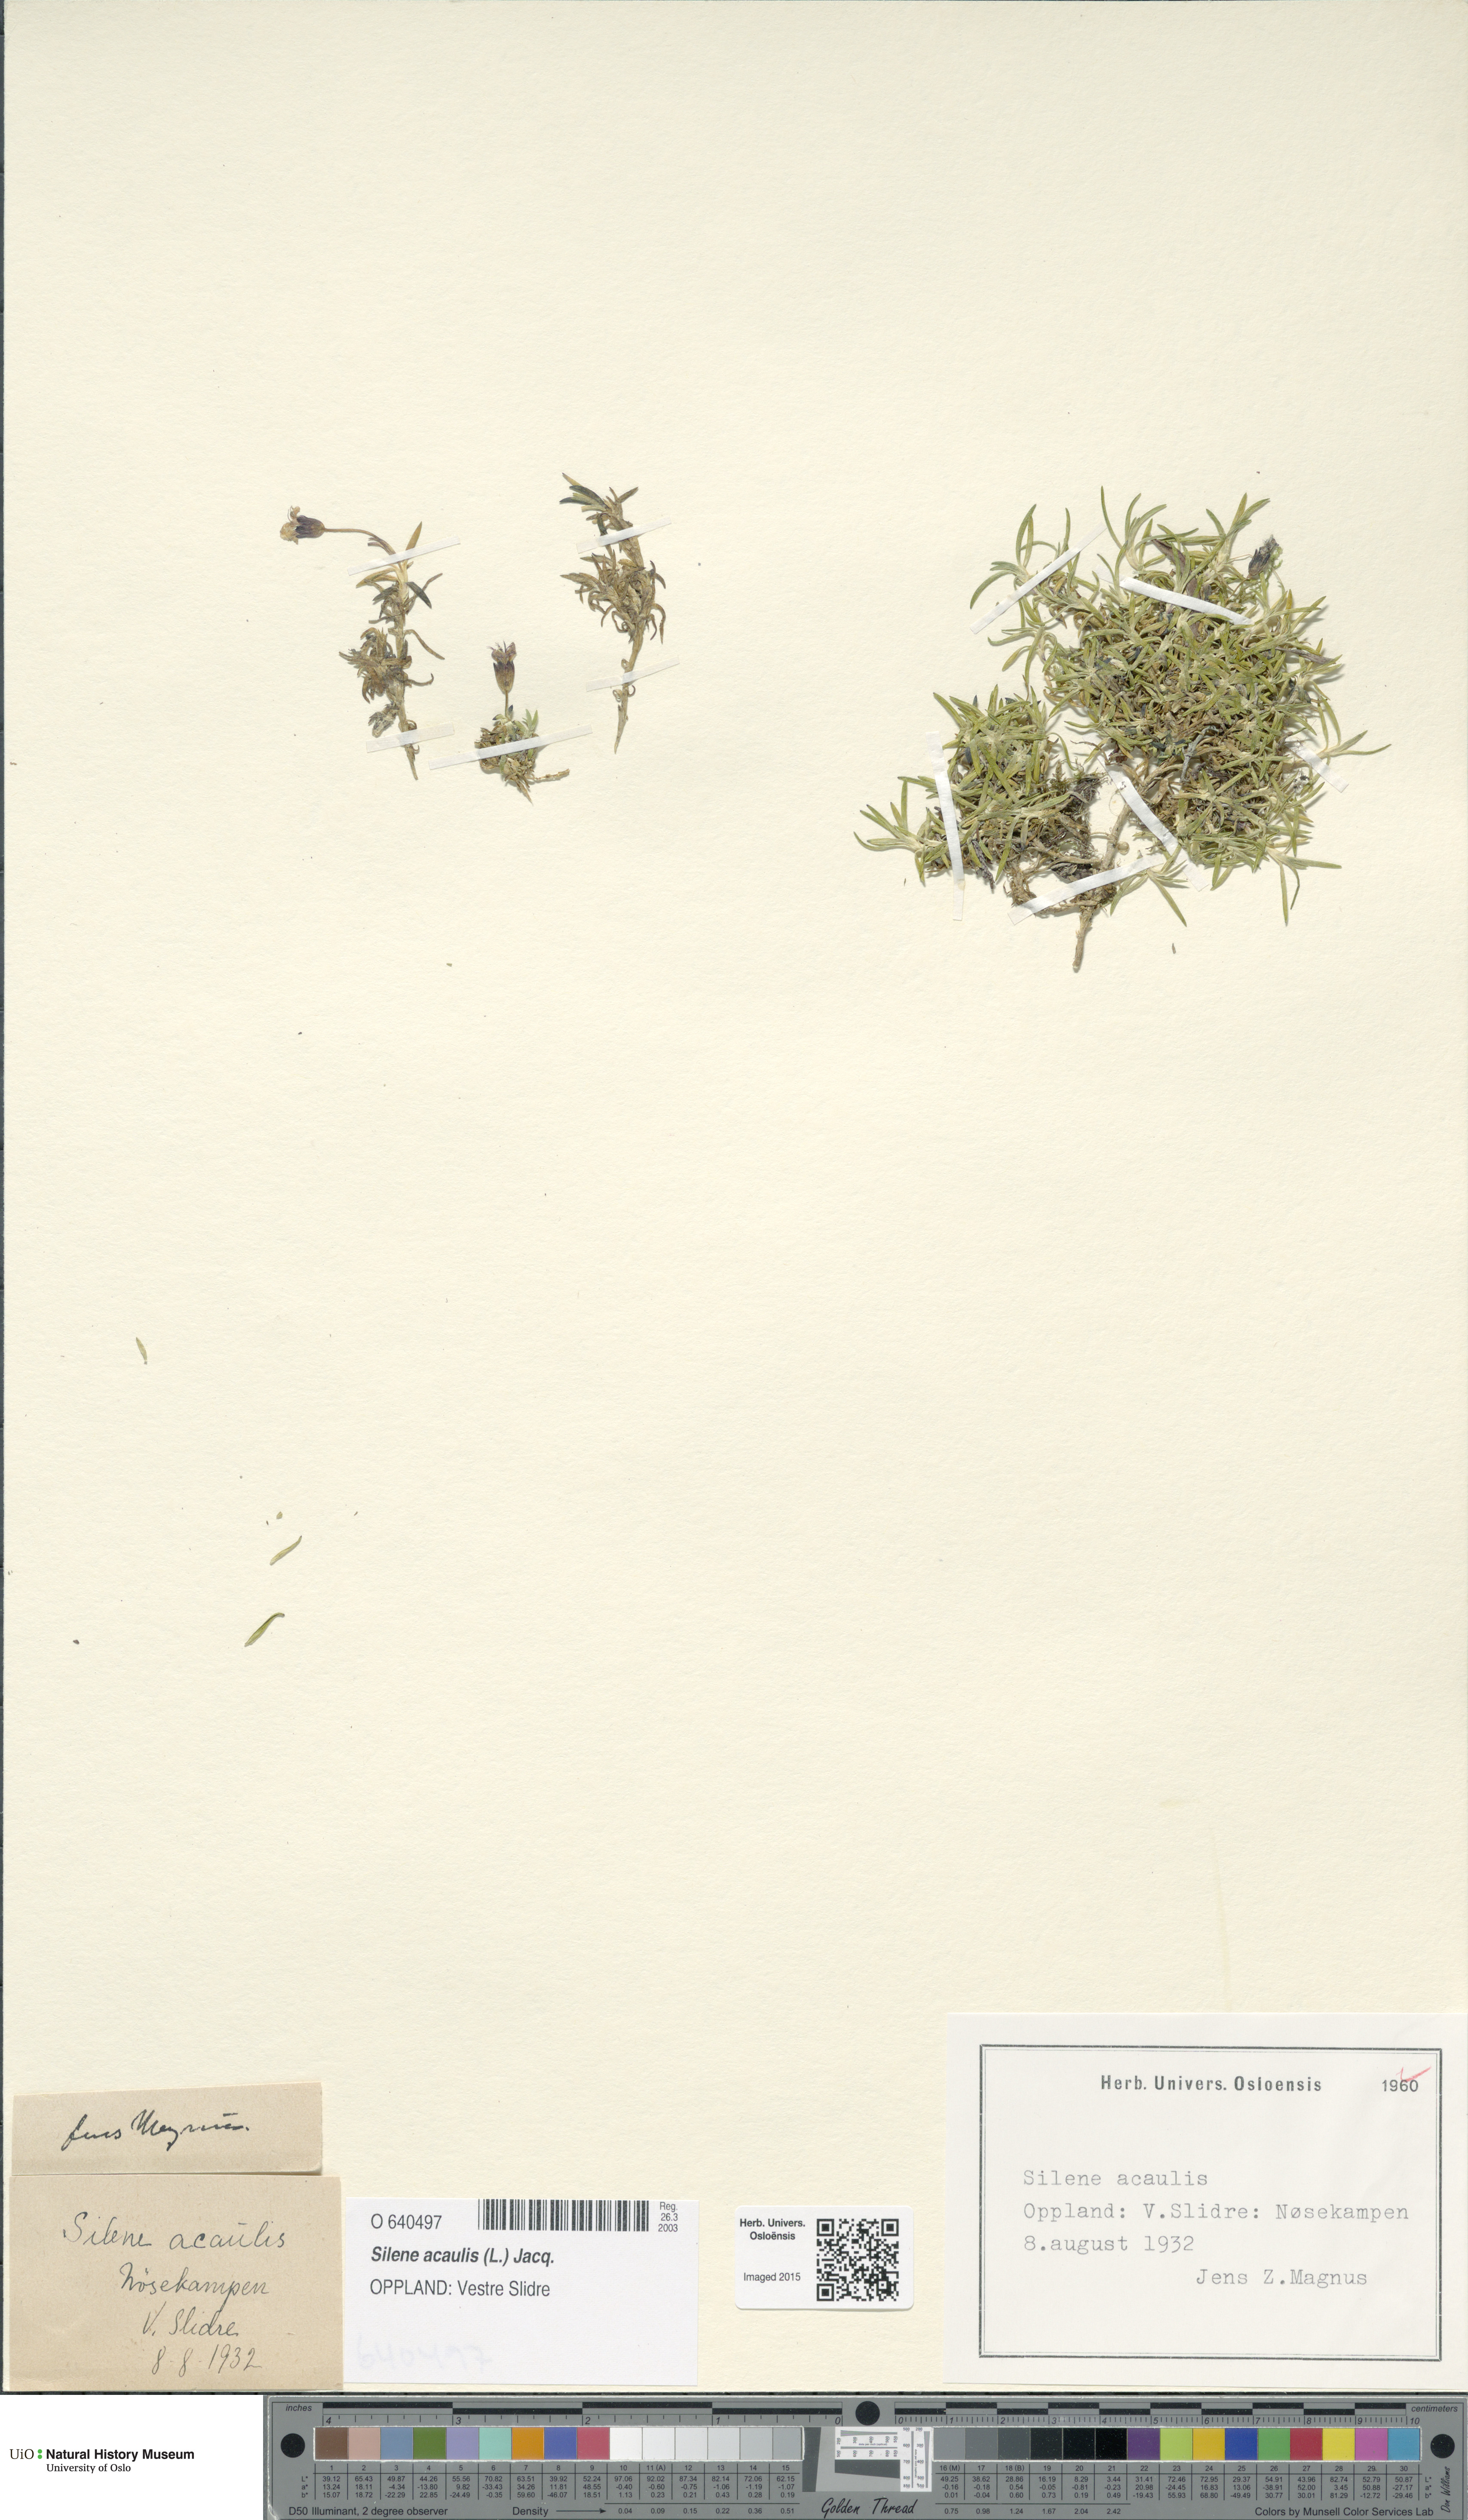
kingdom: Plantae
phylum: Tracheophyta
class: Magnoliopsida
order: Caryophyllales
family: Caryophyllaceae
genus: Silene
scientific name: Silene acaulis
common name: Moss campion
